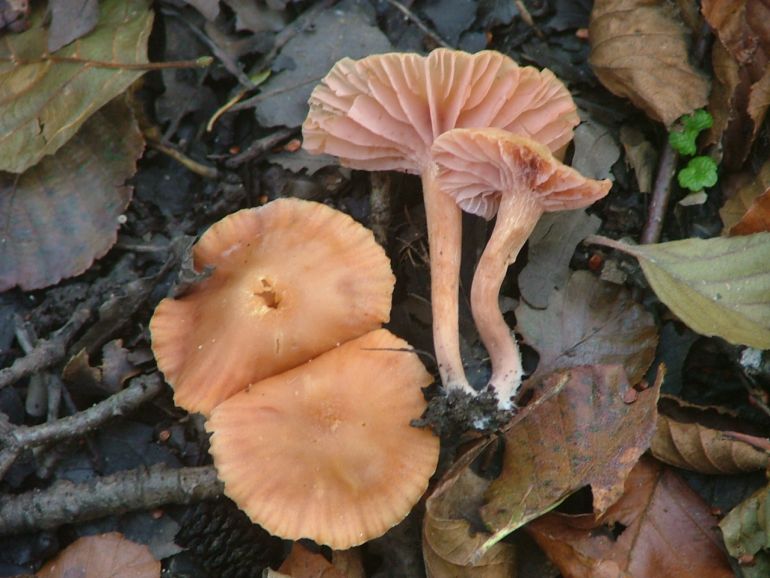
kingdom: Fungi
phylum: Basidiomycota
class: Agaricomycetes
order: Agaricales
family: Hydnangiaceae
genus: Laccaria
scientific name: Laccaria laccata
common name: rød ametysthat
